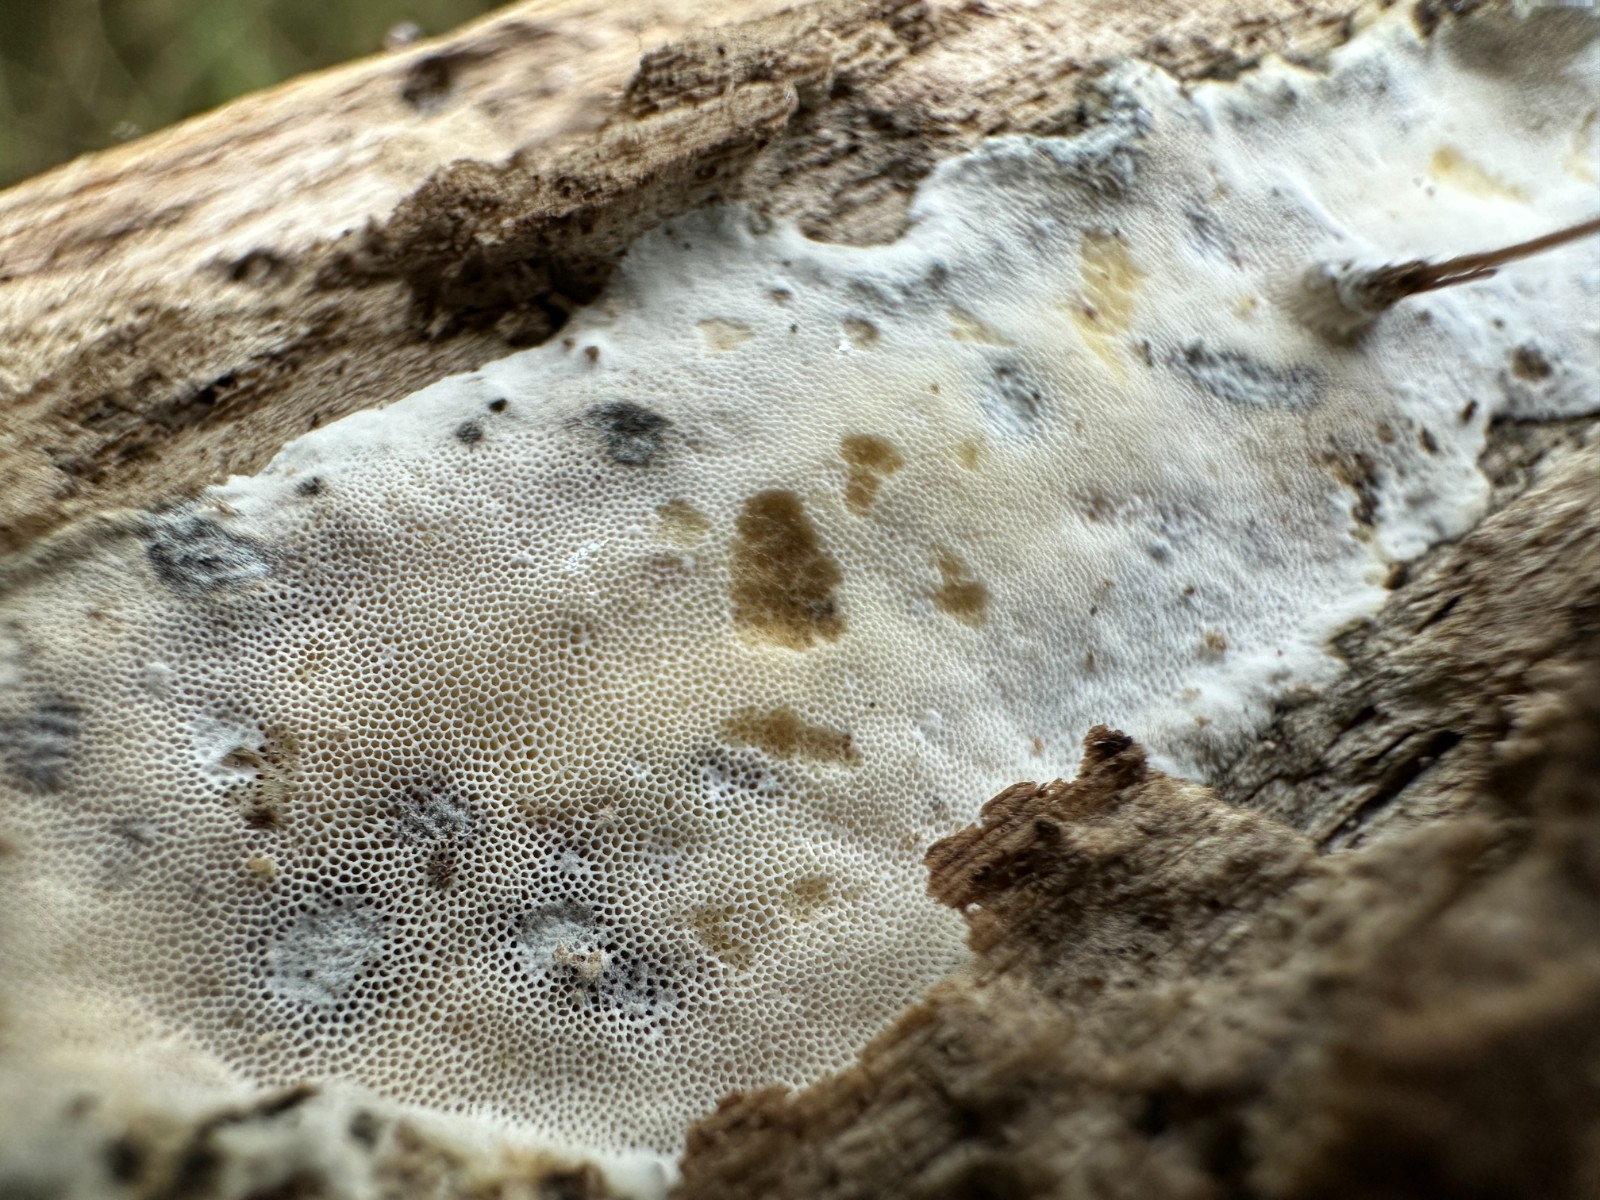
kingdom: Fungi
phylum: Basidiomycota
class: Agaricomycetes
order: Polyporales
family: Incrustoporiaceae
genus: Skeletocutis
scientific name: Skeletocutis nemoralis
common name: stor krystalporesvamp
